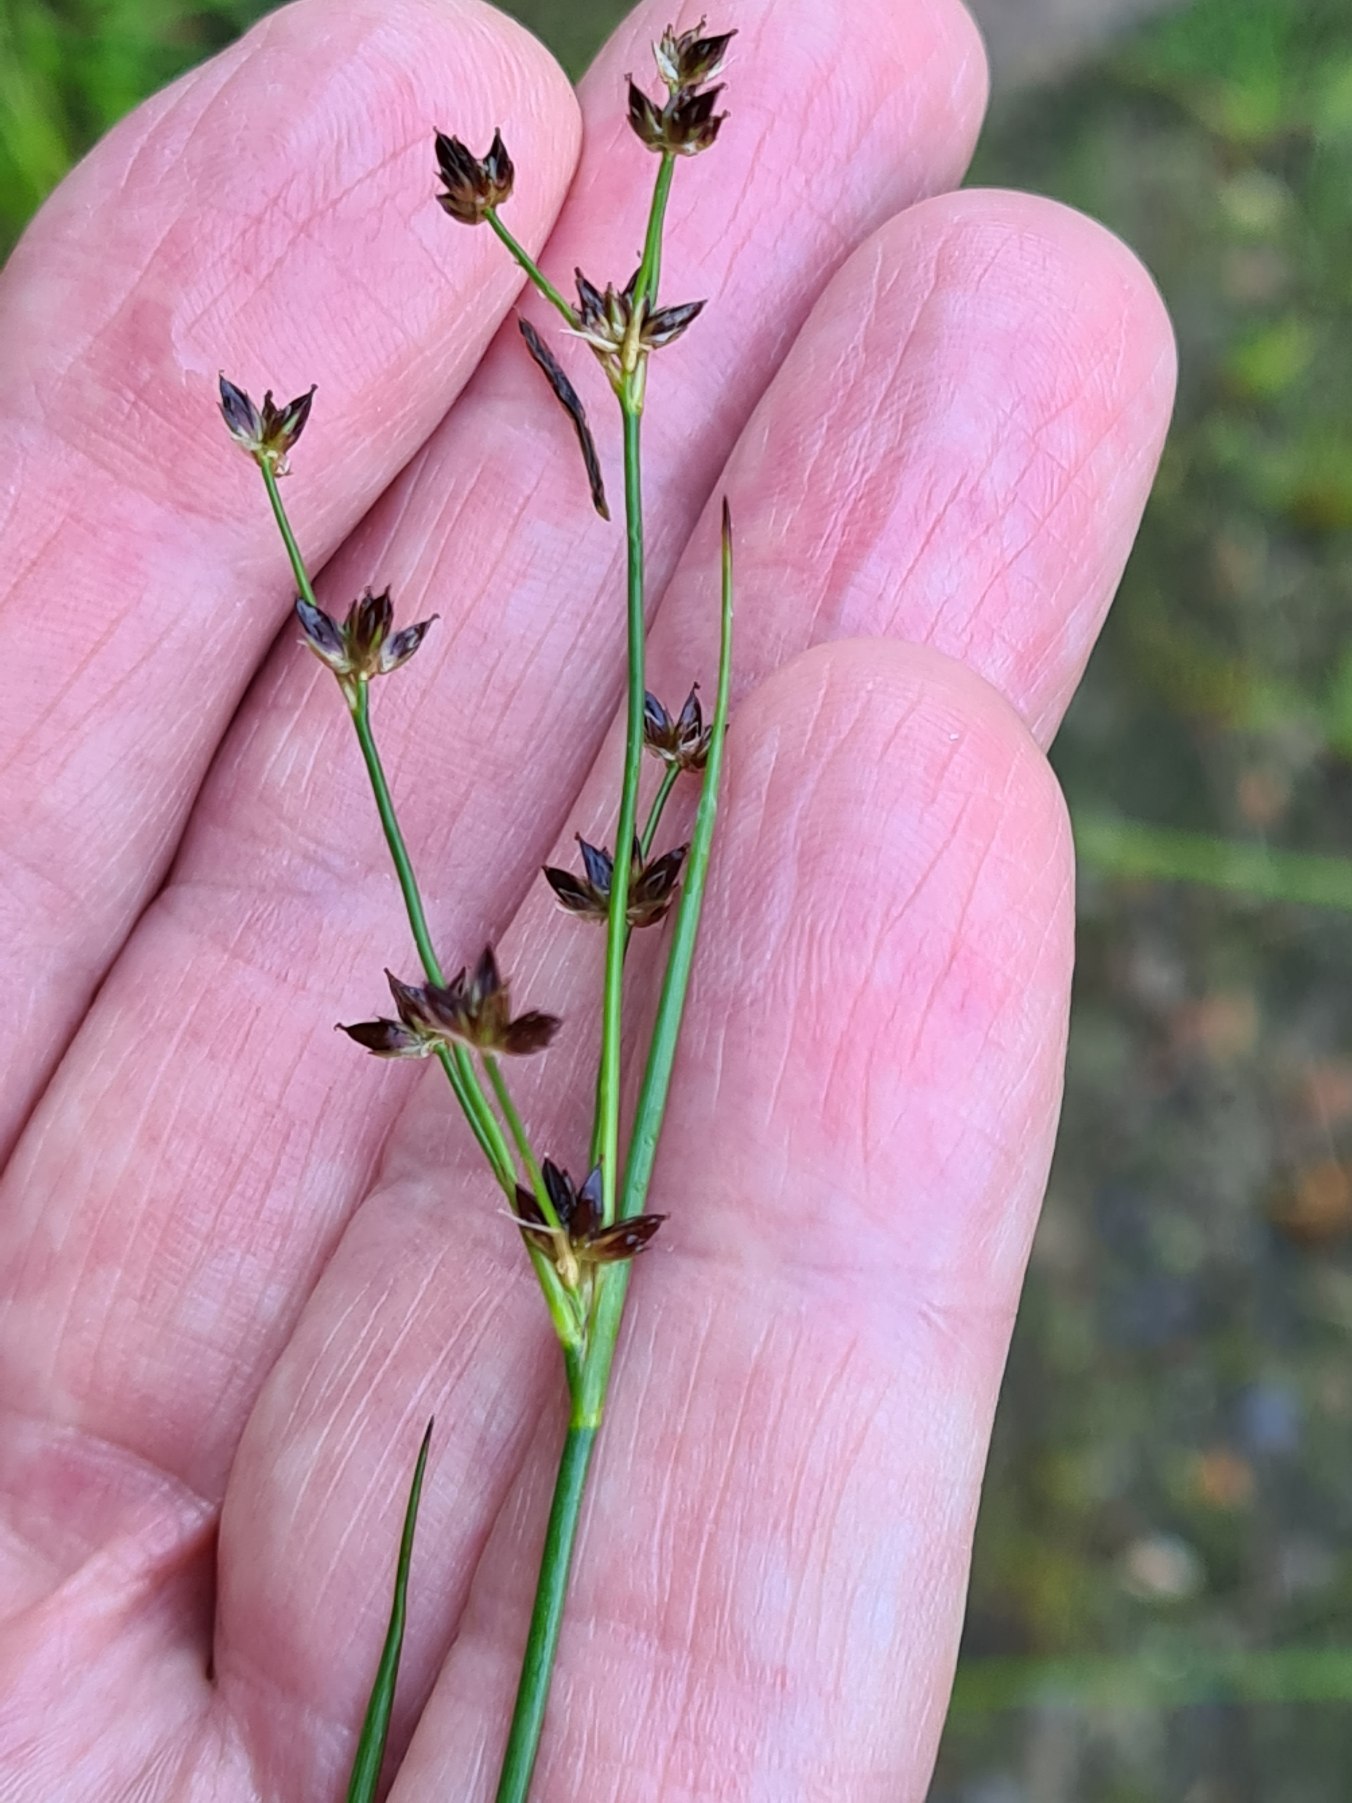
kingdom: Plantae
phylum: Tracheophyta
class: Liliopsida
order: Poales
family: Juncaceae
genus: Juncus
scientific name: Juncus articulatus
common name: Glanskapslet siv
